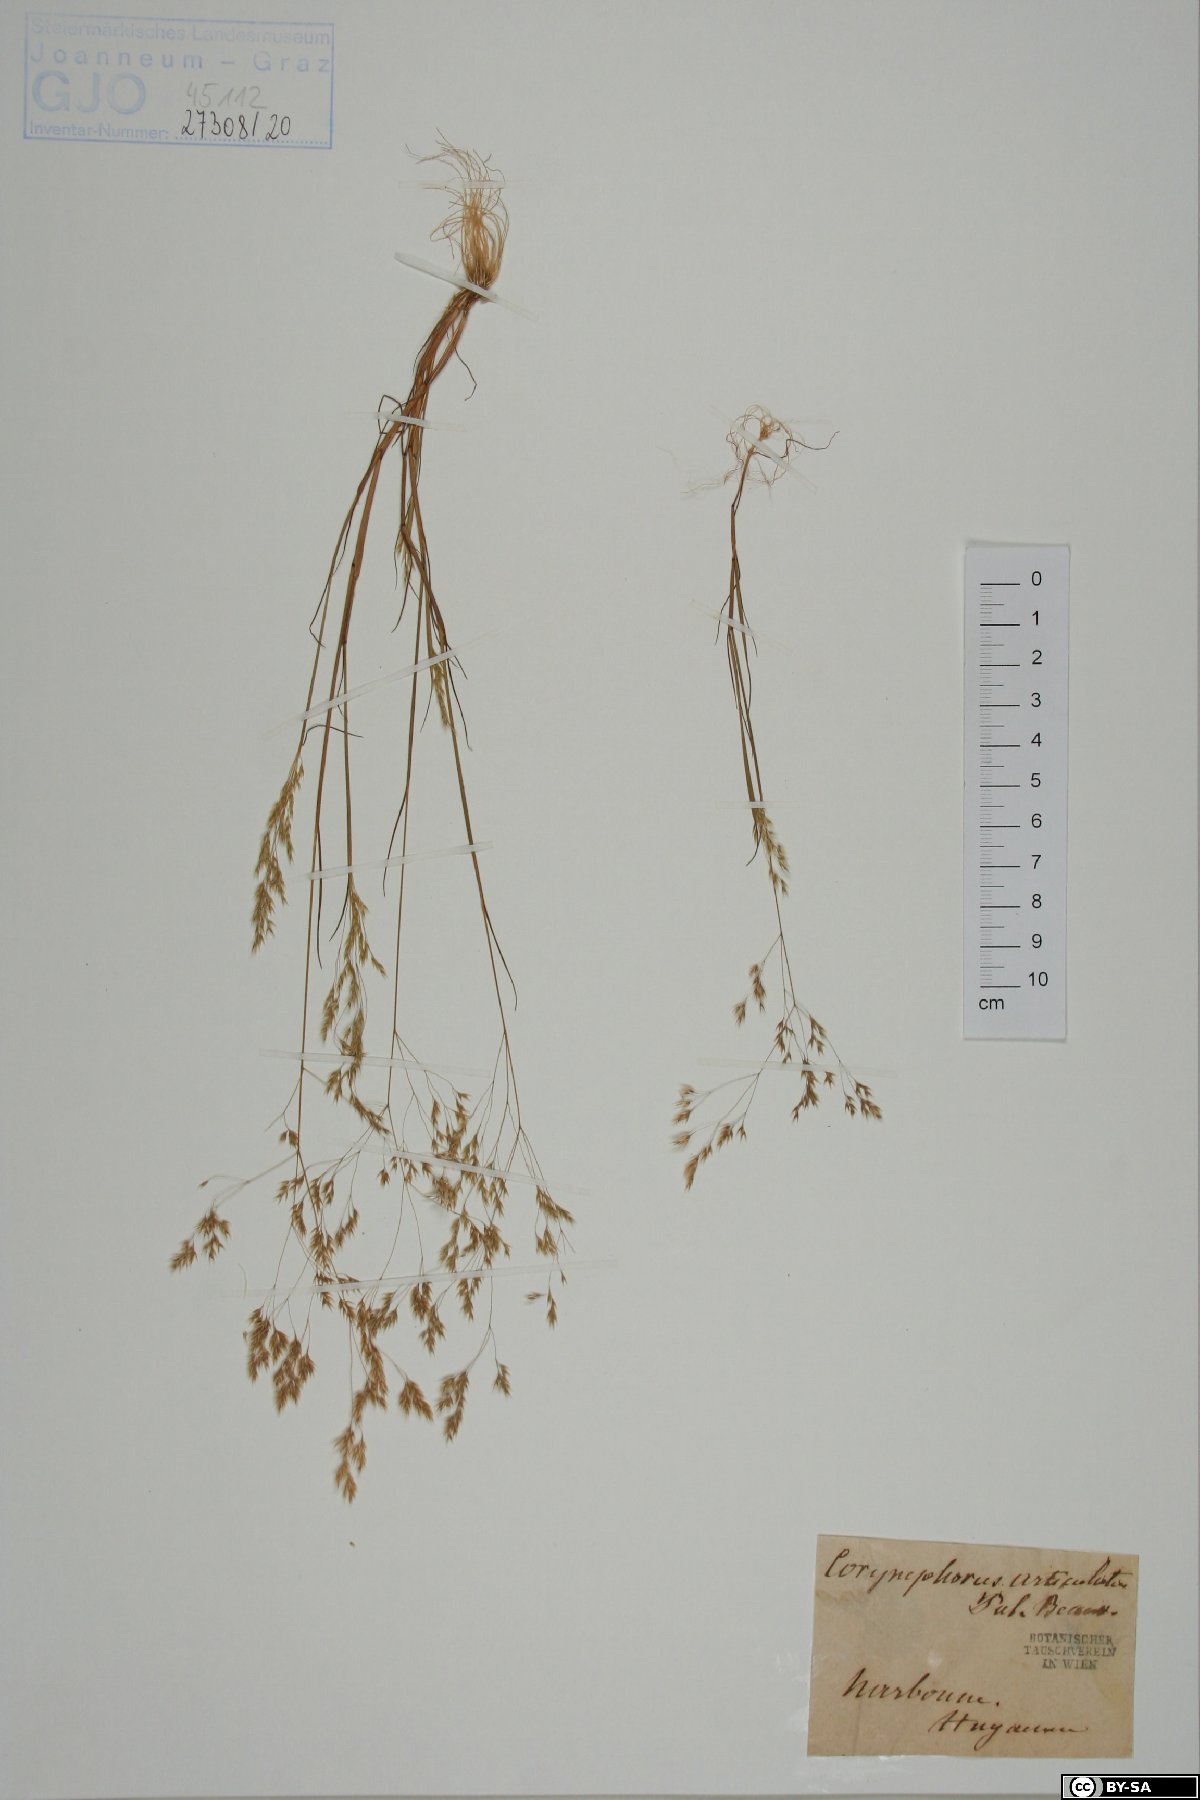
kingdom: Plantae
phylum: Tracheophyta
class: Liliopsida
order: Poales
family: Poaceae
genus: Corynephorus
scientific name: Corynephorus articulatus
